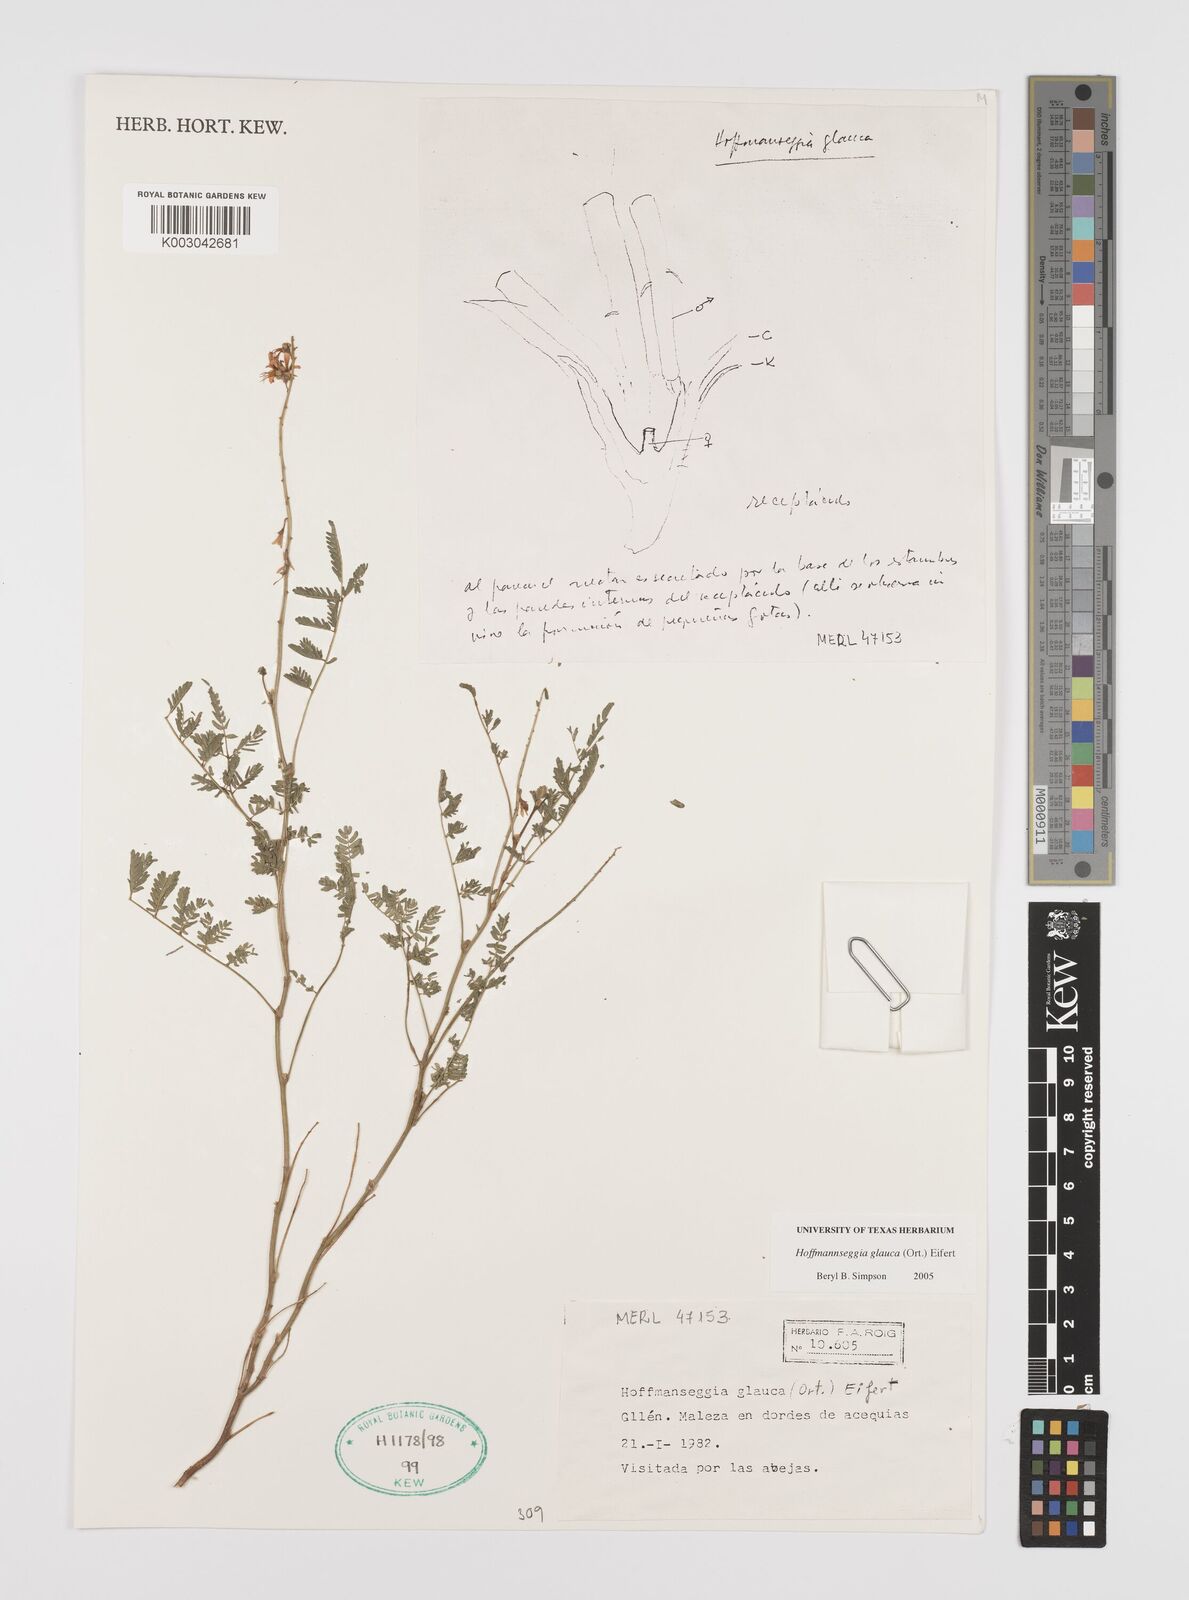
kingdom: Plantae
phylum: Tracheophyta
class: Magnoliopsida
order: Fabales
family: Fabaceae
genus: Hoffmannseggia
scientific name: Hoffmannseggia glauca
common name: Pignut
